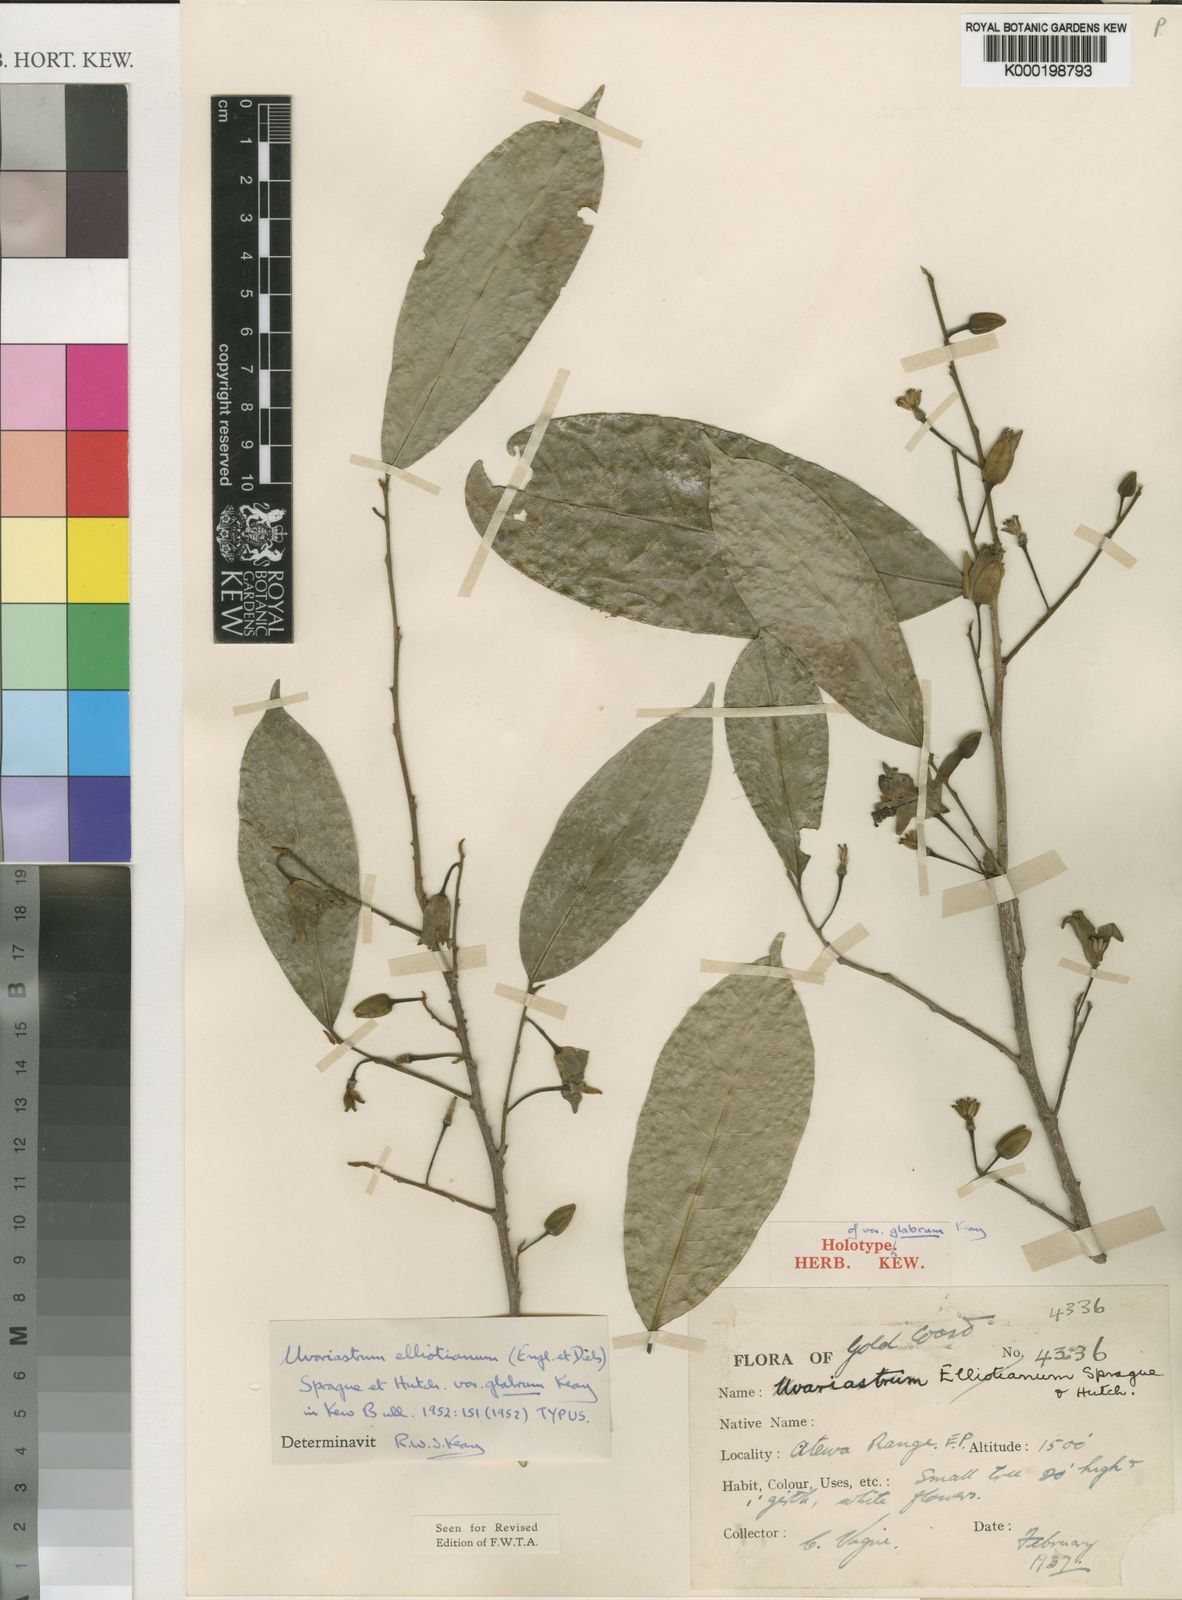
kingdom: Plantae
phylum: Tracheophyta
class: Magnoliopsida
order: Magnoliales
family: Annonaceae
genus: Mischogyne
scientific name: Mischogyne elliotianum
